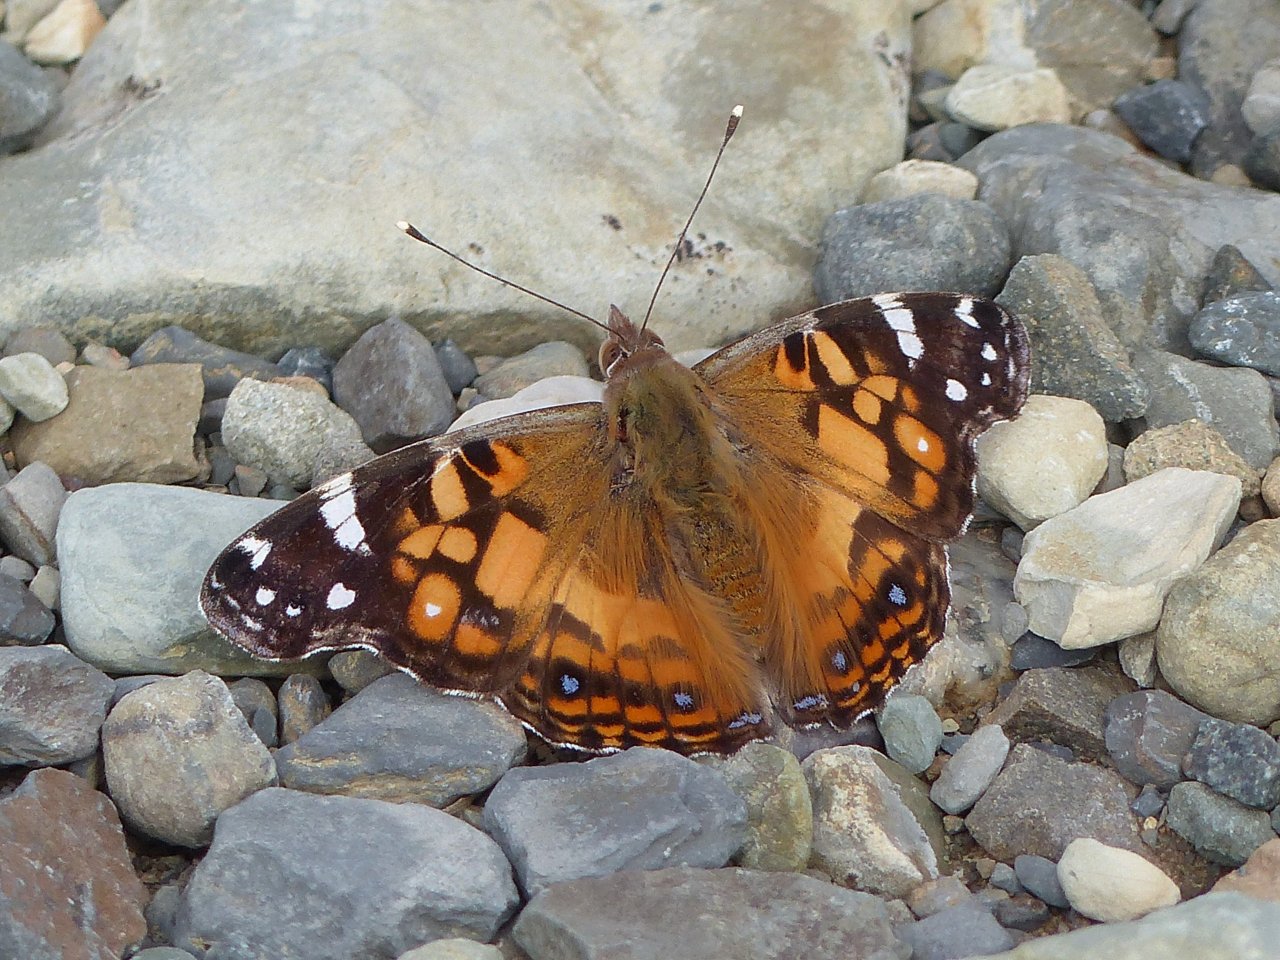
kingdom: Animalia
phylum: Arthropoda
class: Insecta
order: Lepidoptera
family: Nymphalidae
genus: Vanessa
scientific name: Vanessa virginiensis
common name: American Lady
